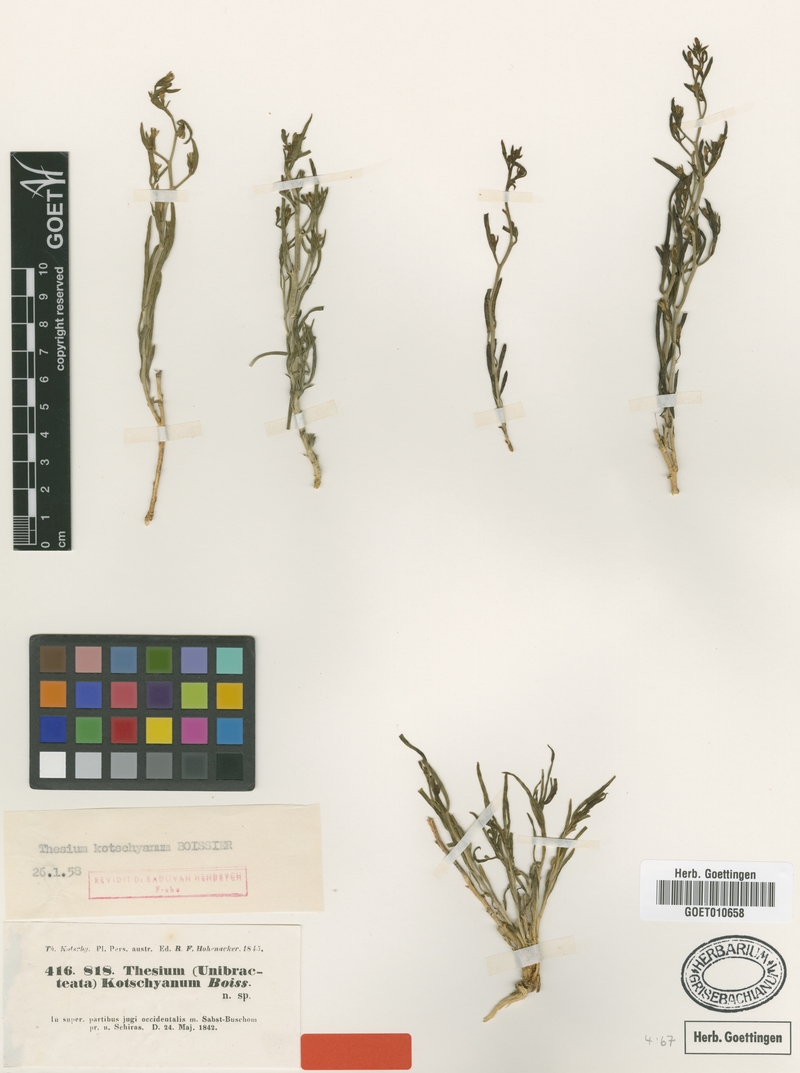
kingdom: Plantae
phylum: Tracheophyta
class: Magnoliopsida
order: Santalales
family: Thesiaceae
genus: Thesium
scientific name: Thesium kotschyanum
